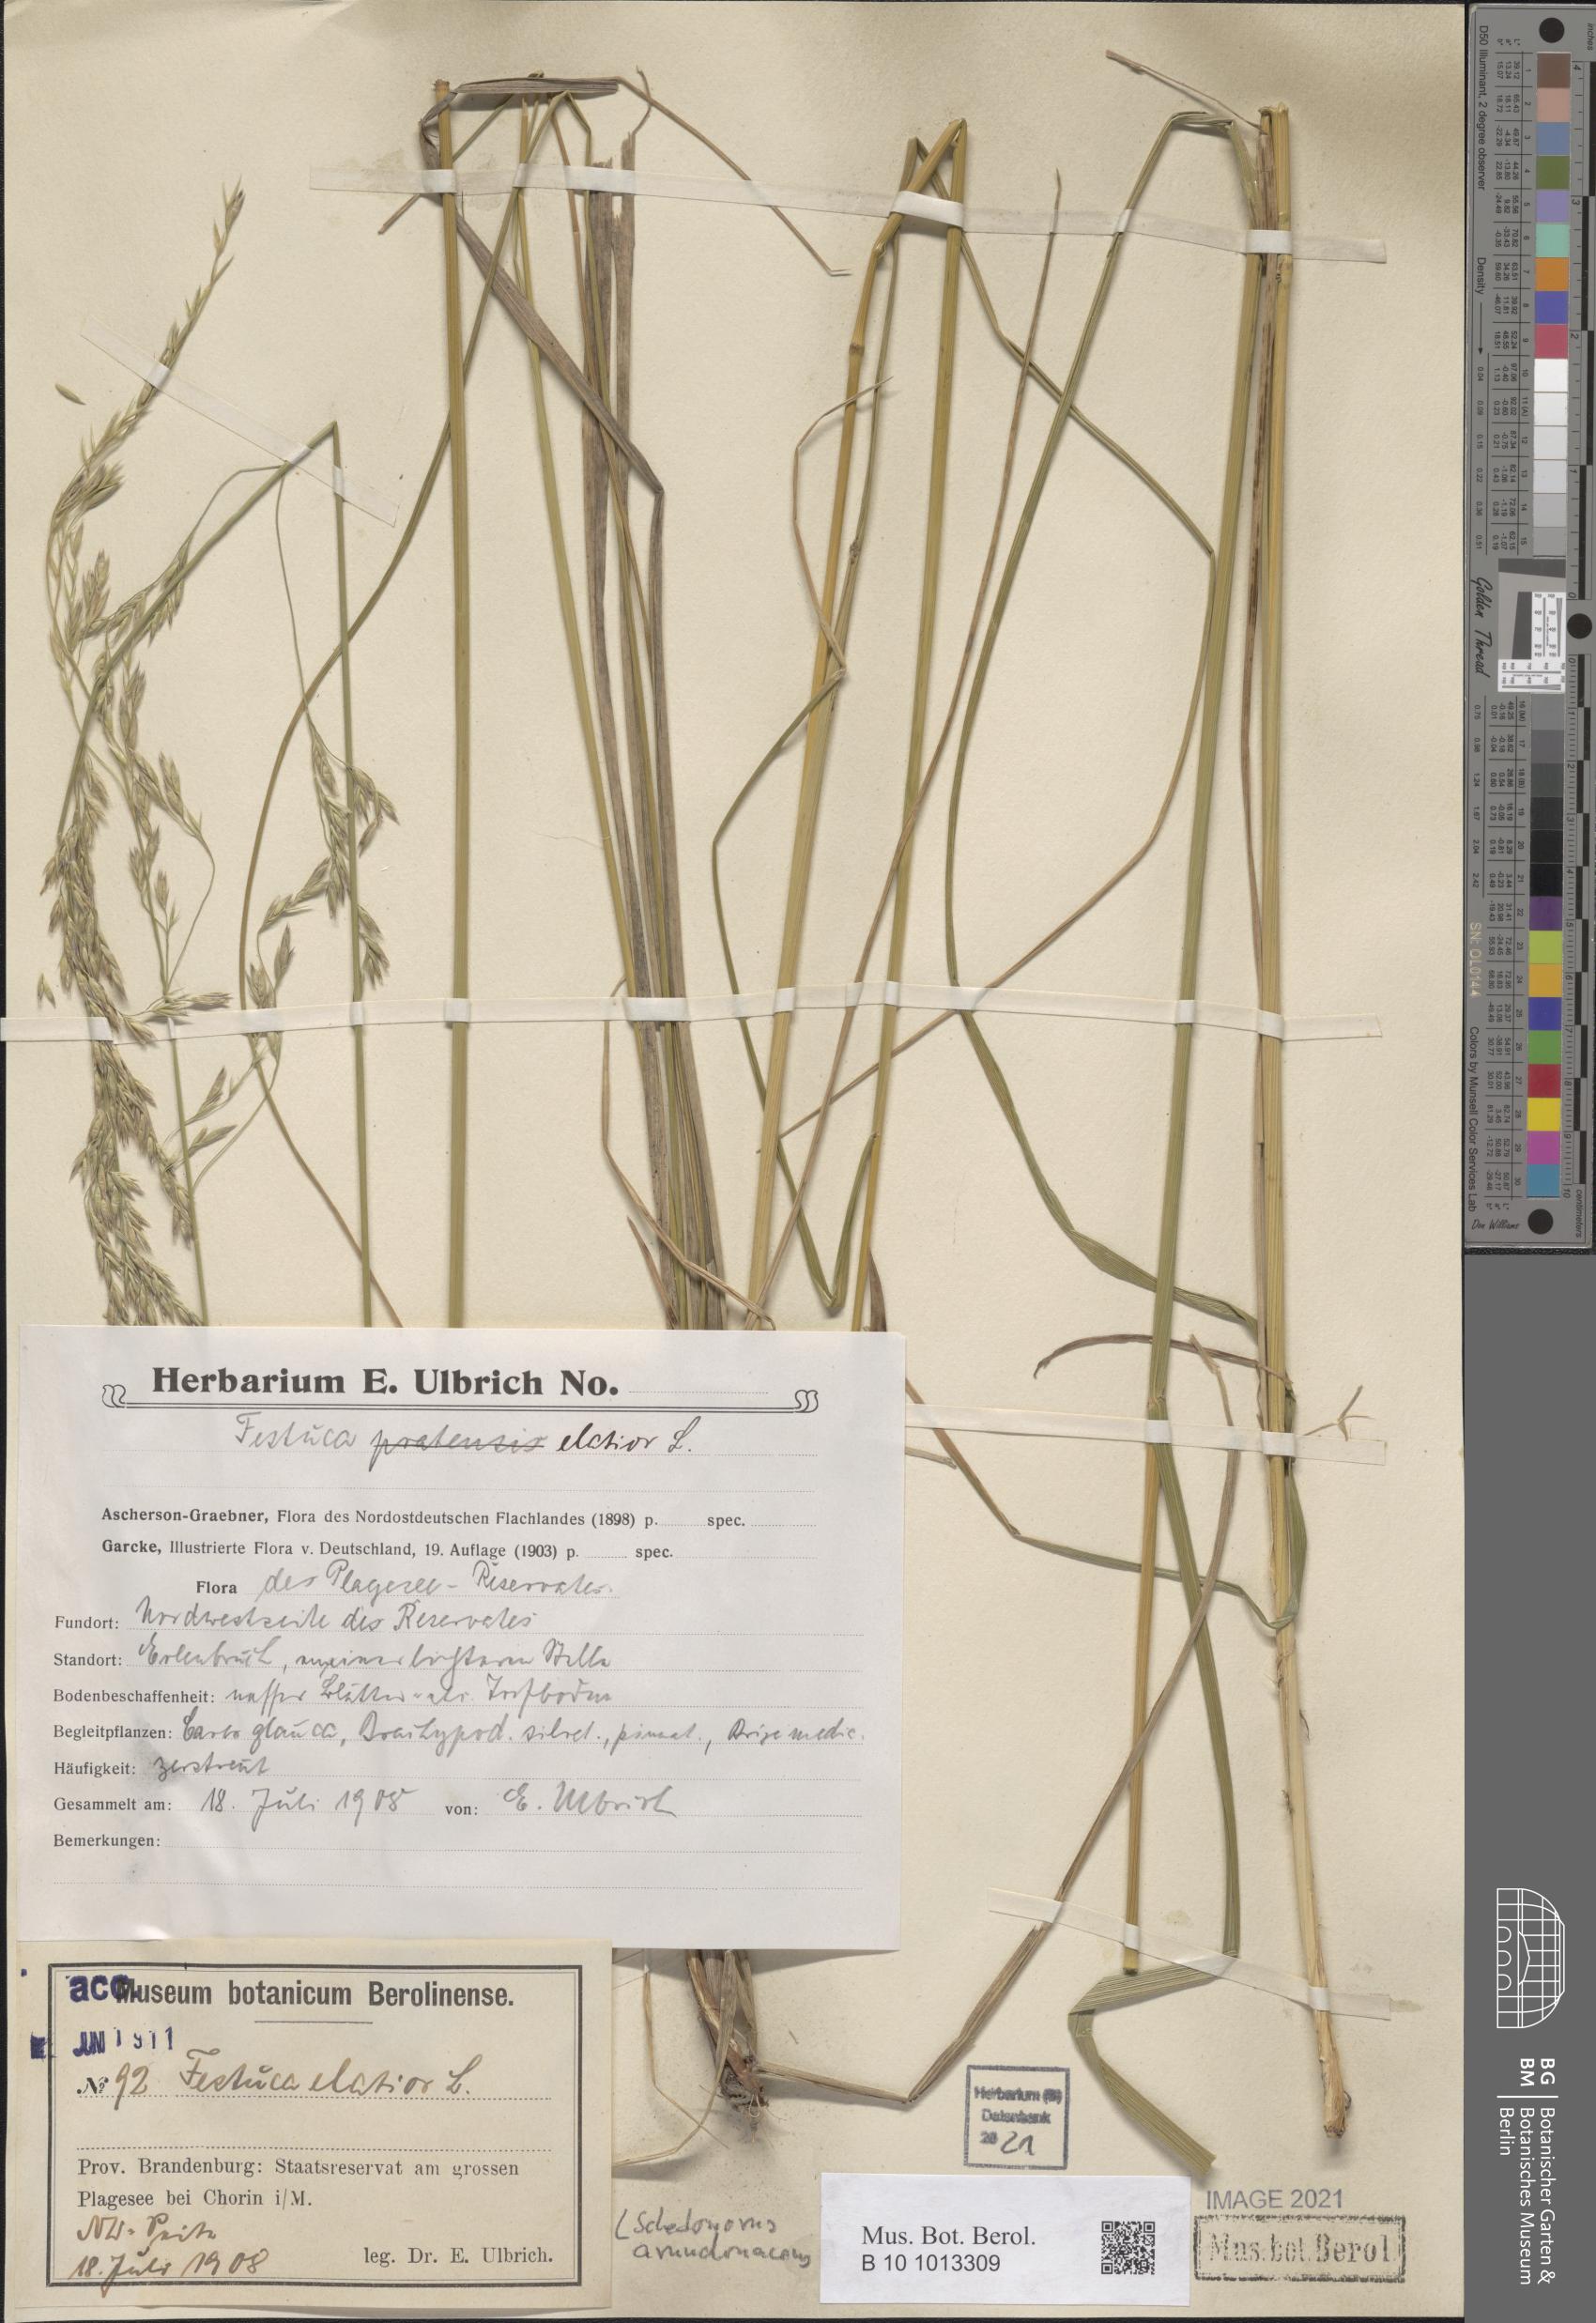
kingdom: Plantae
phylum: Tracheophyta
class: Liliopsida
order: Poales
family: Poaceae
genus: Lolium
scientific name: Lolium arundinaceum
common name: Reed fescue
